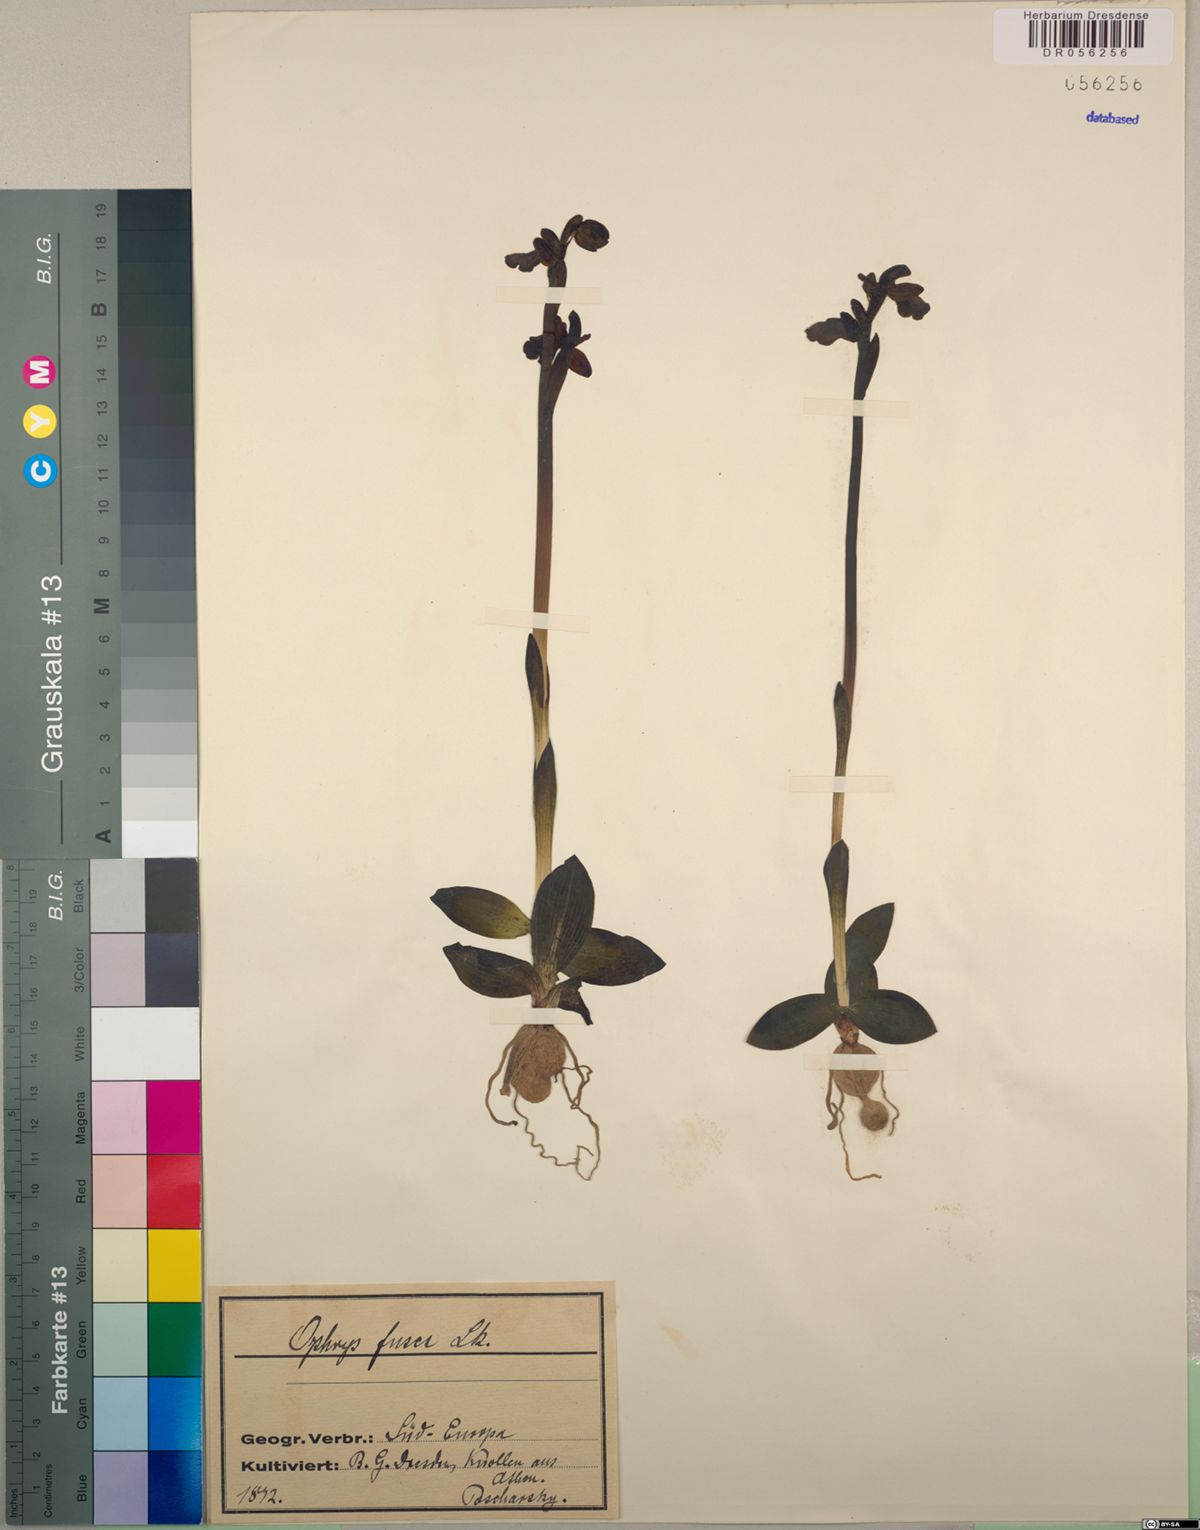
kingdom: Plantae
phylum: Tracheophyta
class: Liliopsida
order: Asparagales
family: Orchidaceae
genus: Ophrys
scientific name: Ophrys fusca
